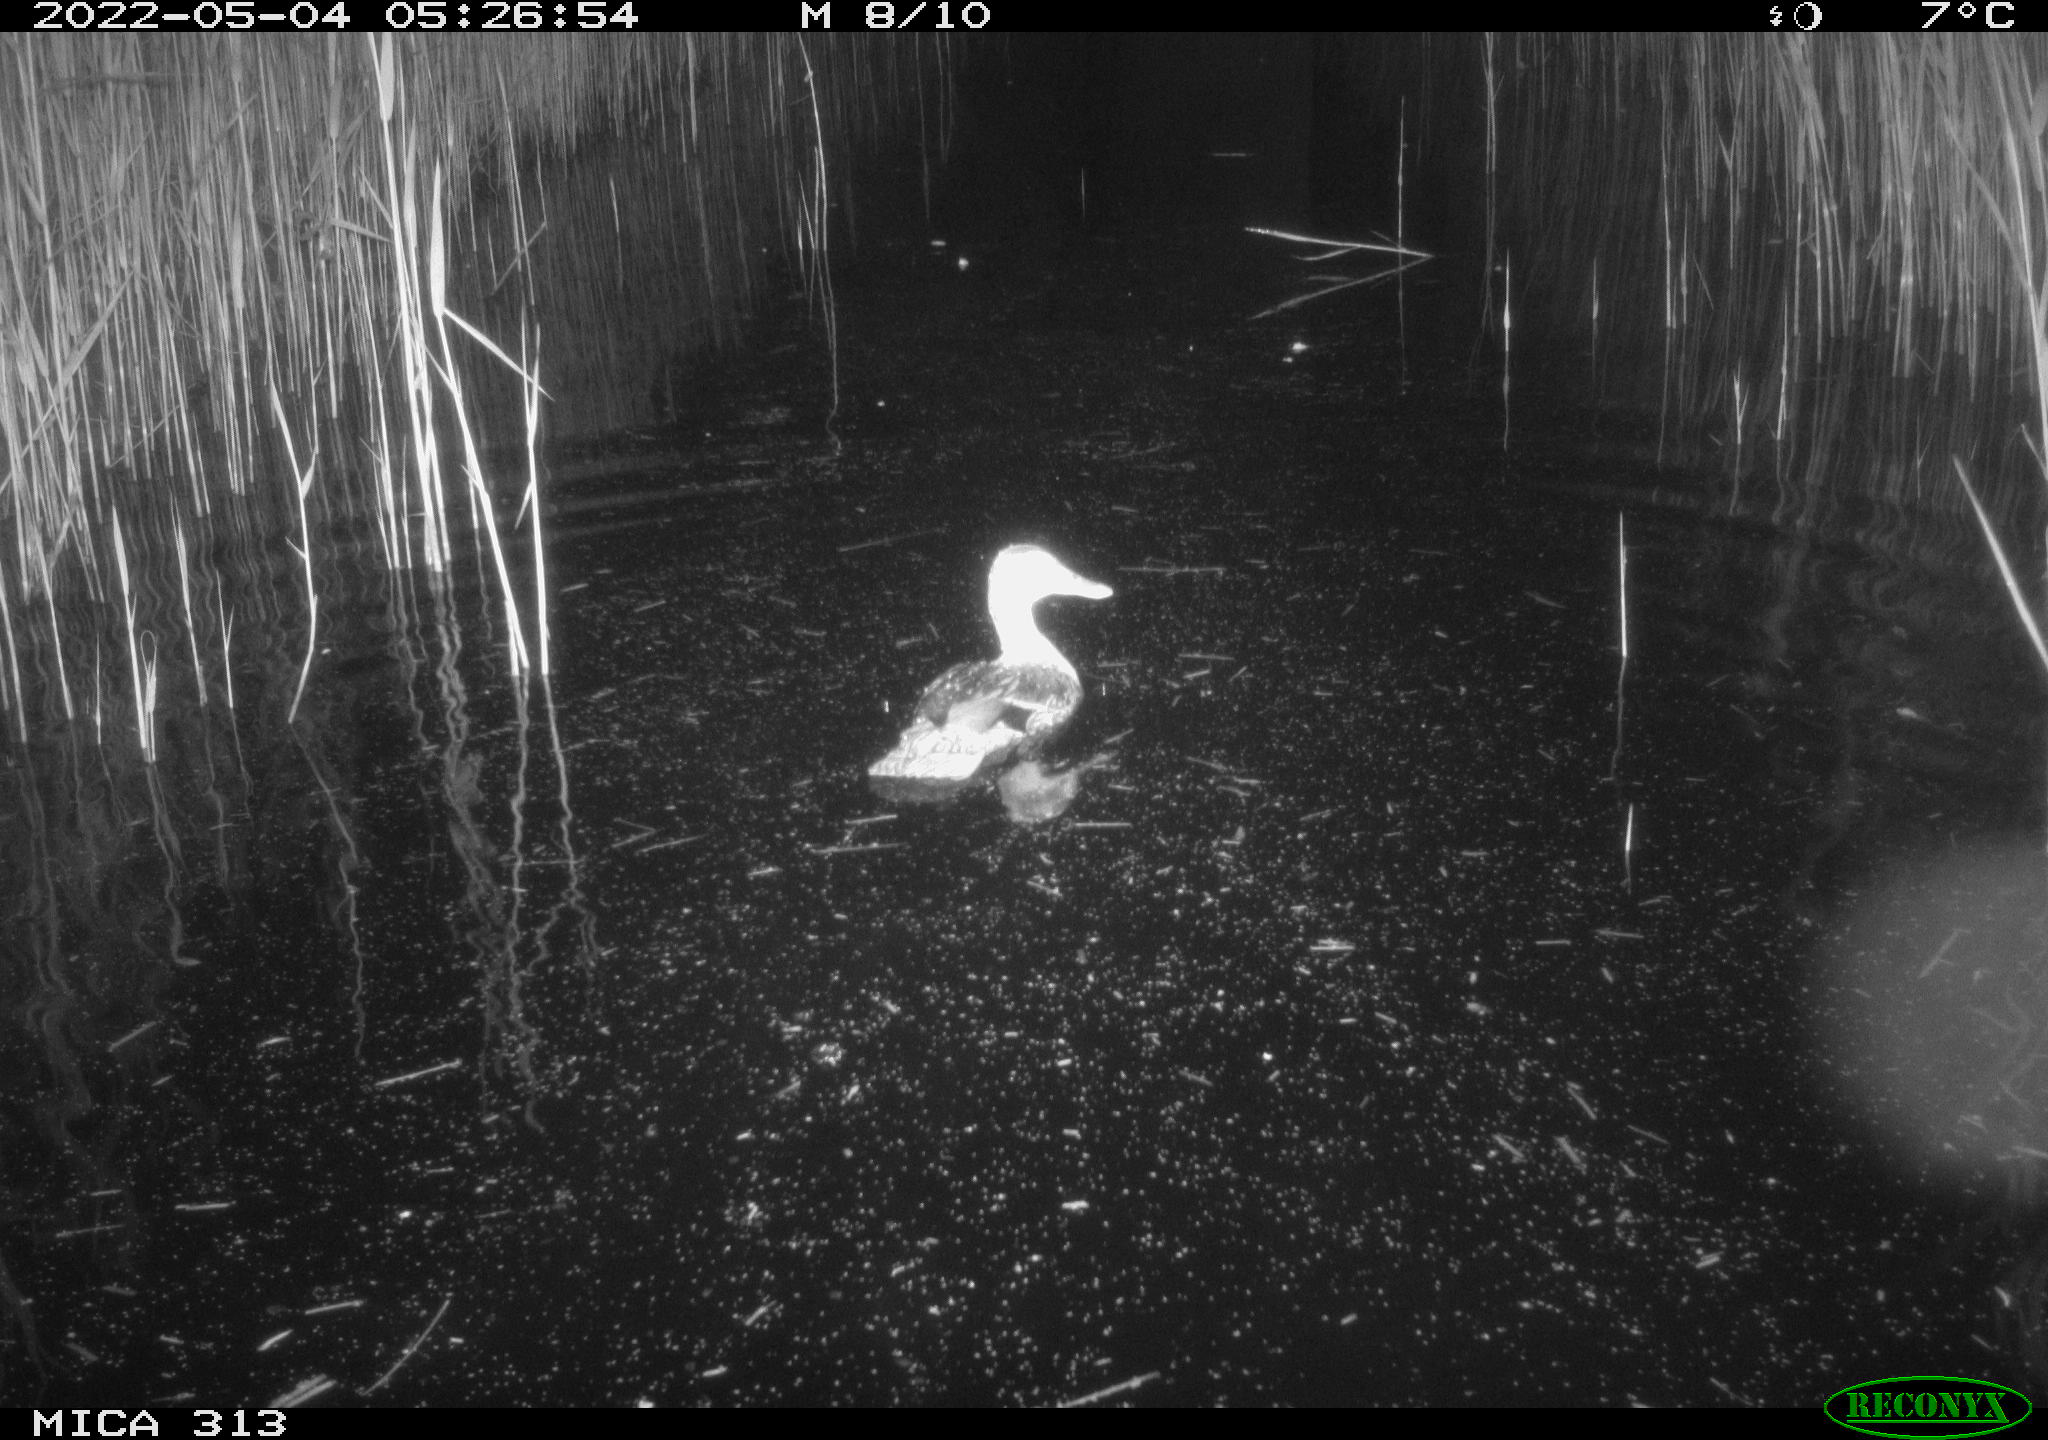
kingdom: Animalia
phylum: Chordata
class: Aves
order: Anseriformes
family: Anatidae
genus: Anas
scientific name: Anas platyrhynchos
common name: Mallard
